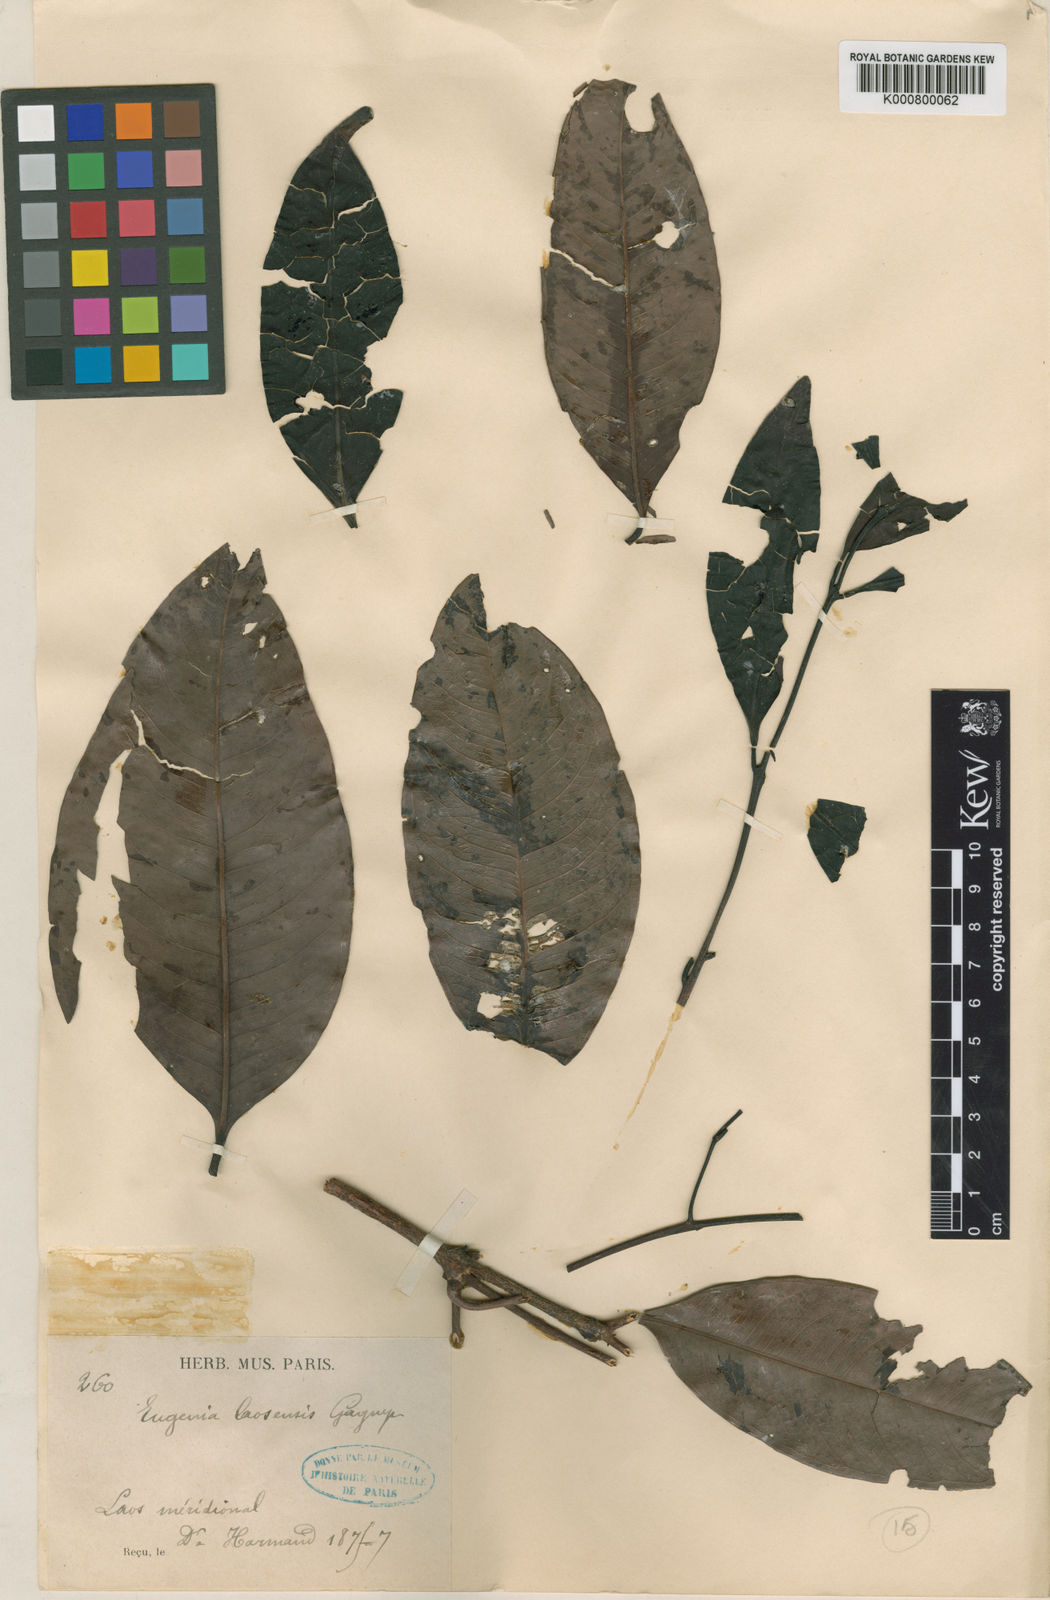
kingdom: Plantae
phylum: Tracheophyta
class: Magnoliopsida
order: Myrtales
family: Myrtaceae
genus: Syzygium
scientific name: Syzygium grande
